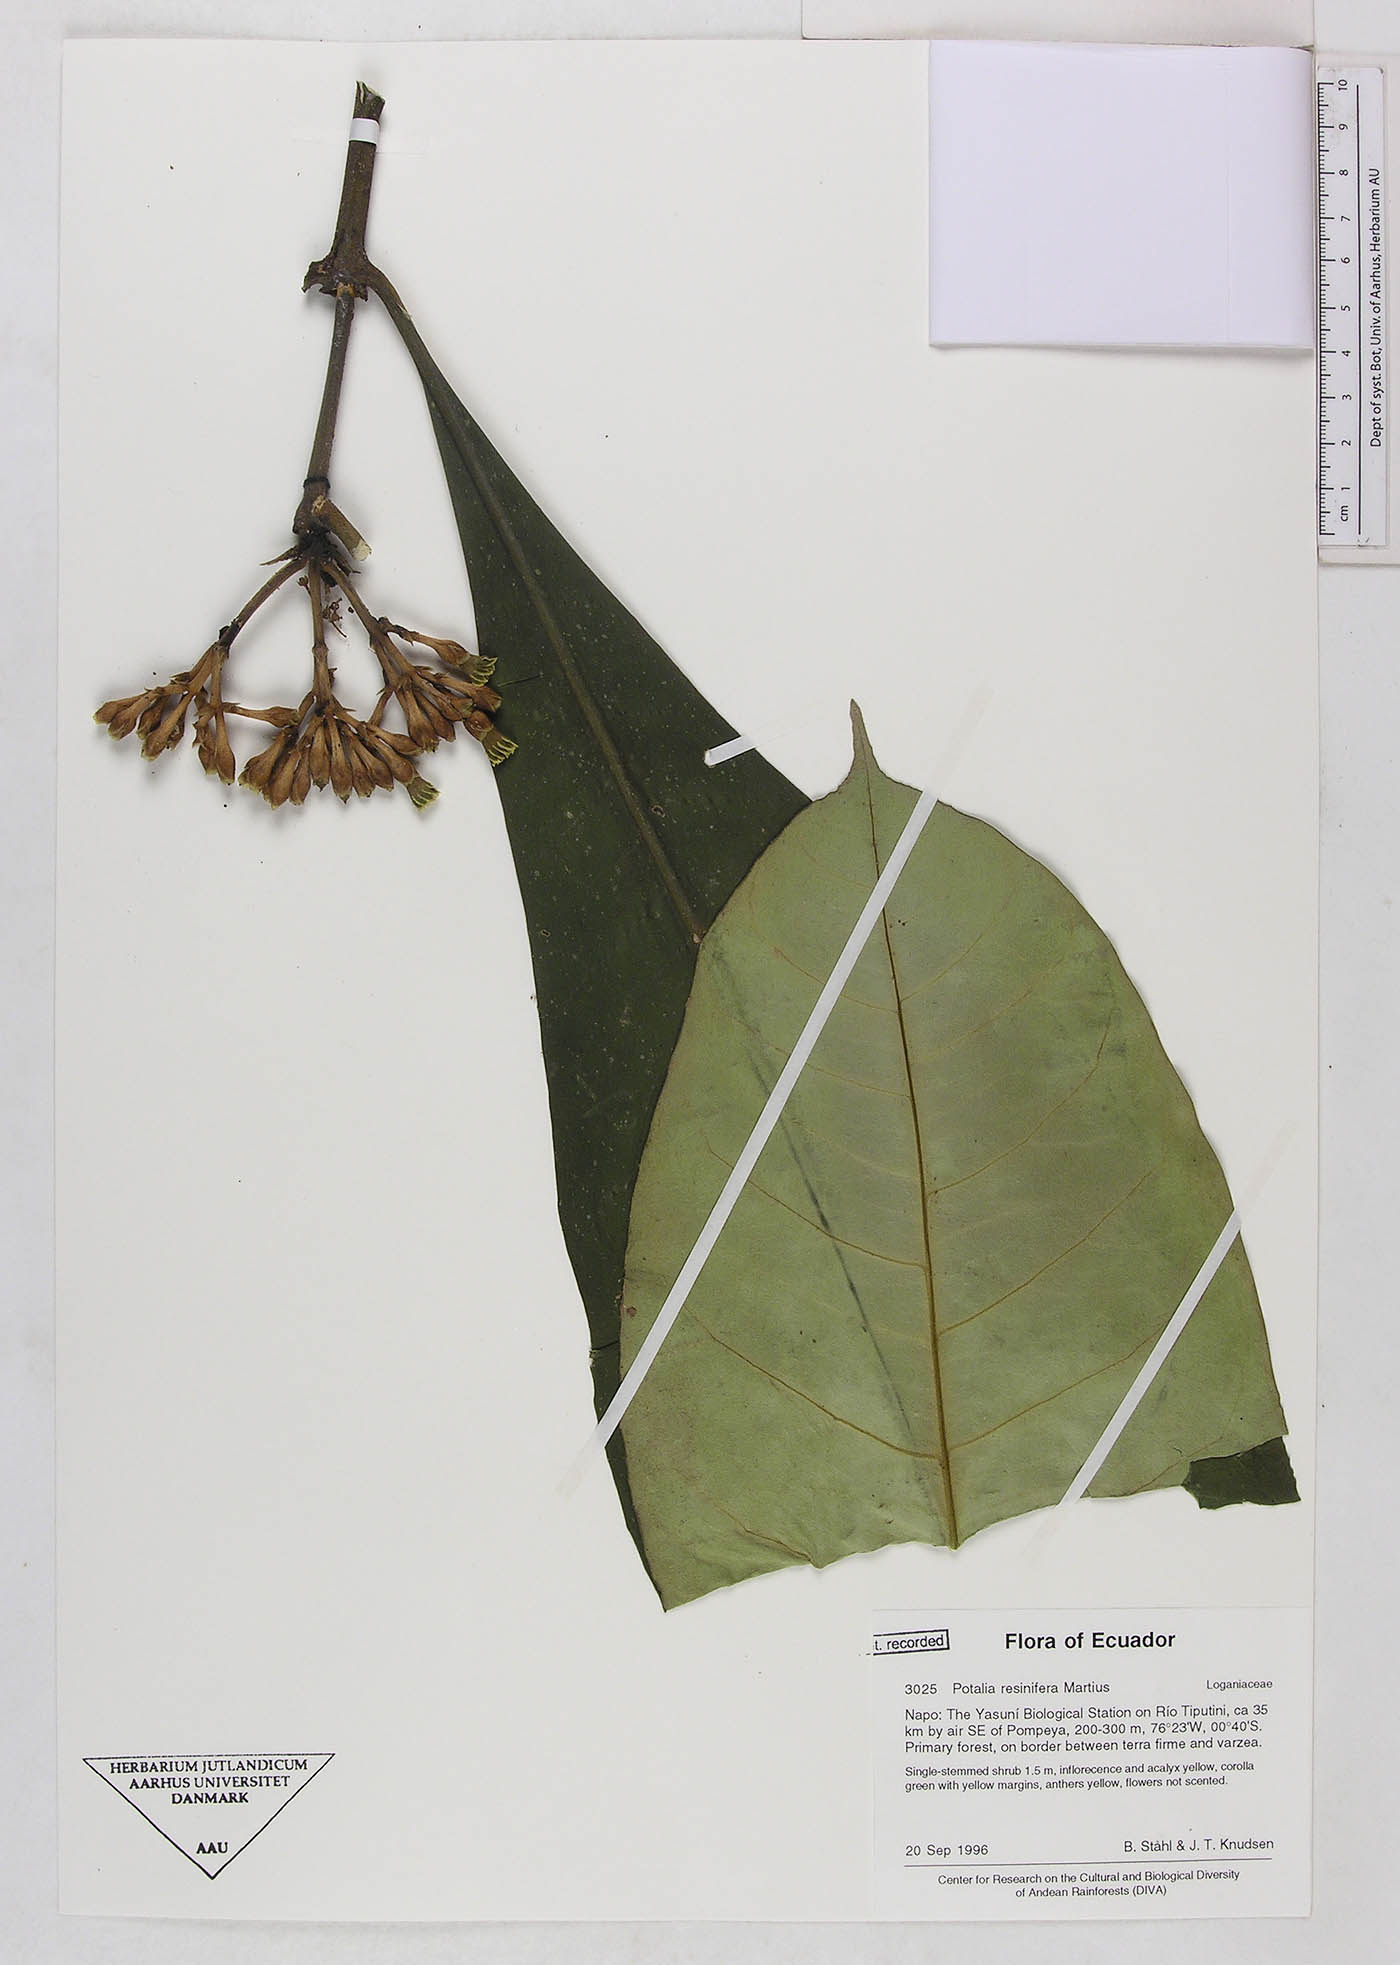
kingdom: Plantae
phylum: Tracheophyta
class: Magnoliopsida
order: Gentianales
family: Gentianaceae
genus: Potalia
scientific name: Potalia resinifera
